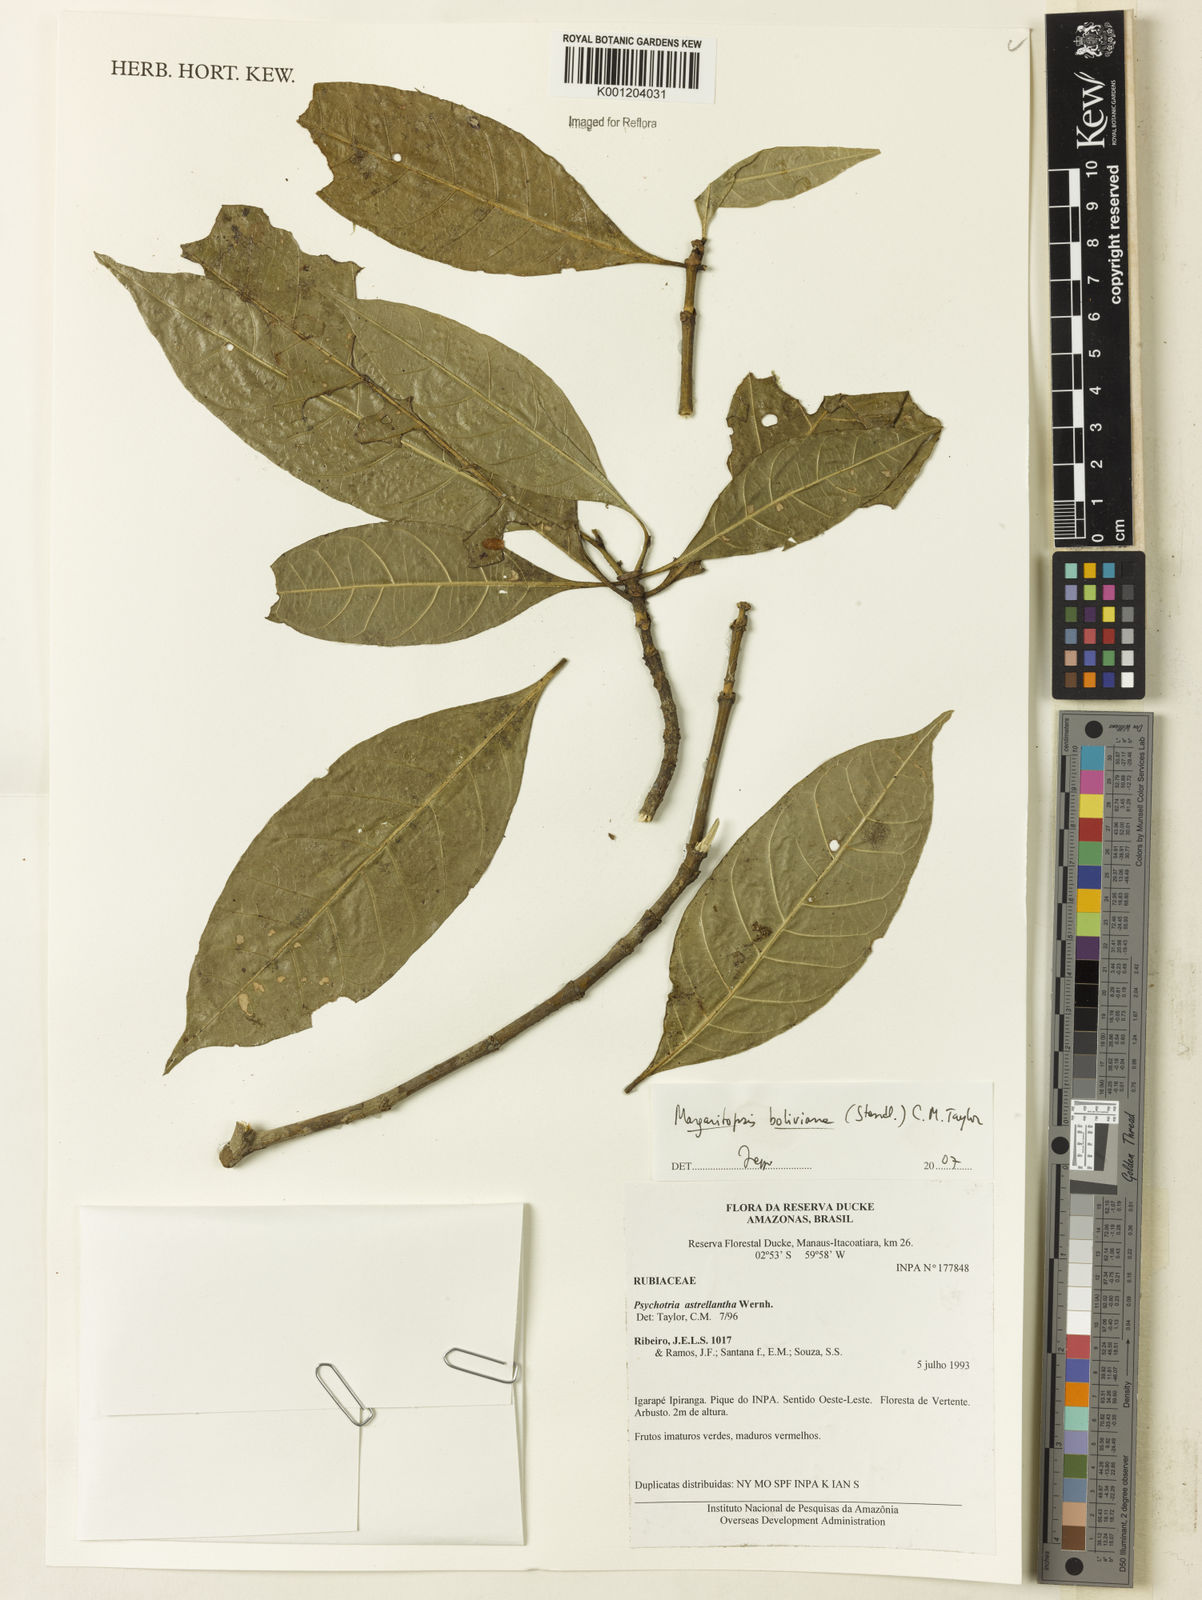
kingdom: Plantae
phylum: Tracheophyta
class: Magnoliopsida
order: Gentianales
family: Rubiaceae
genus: Eumachia
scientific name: Eumachia boliviana
